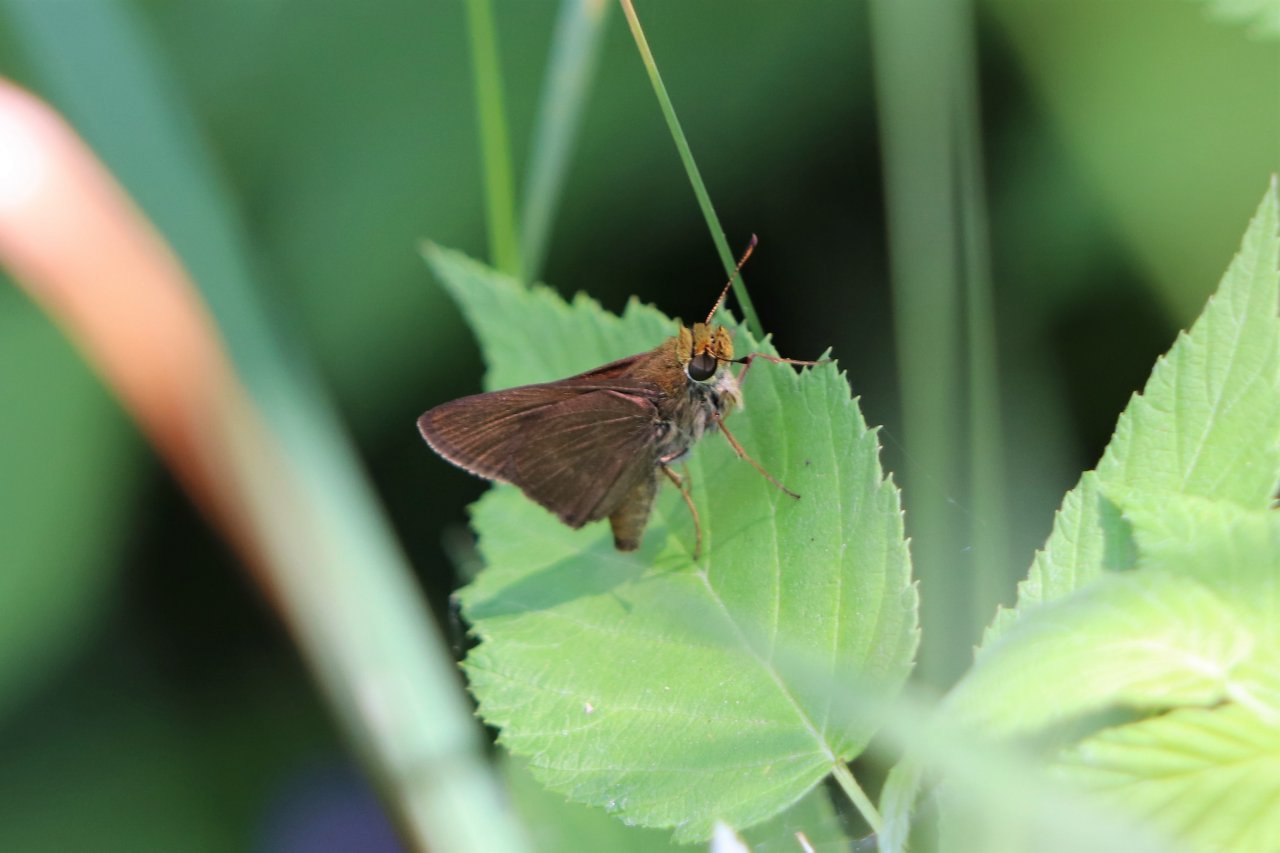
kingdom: Animalia
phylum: Arthropoda
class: Insecta
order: Lepidoptera
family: Hesperiidae
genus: Euphyes
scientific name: Euphyes vestris
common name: Dun Skipper
